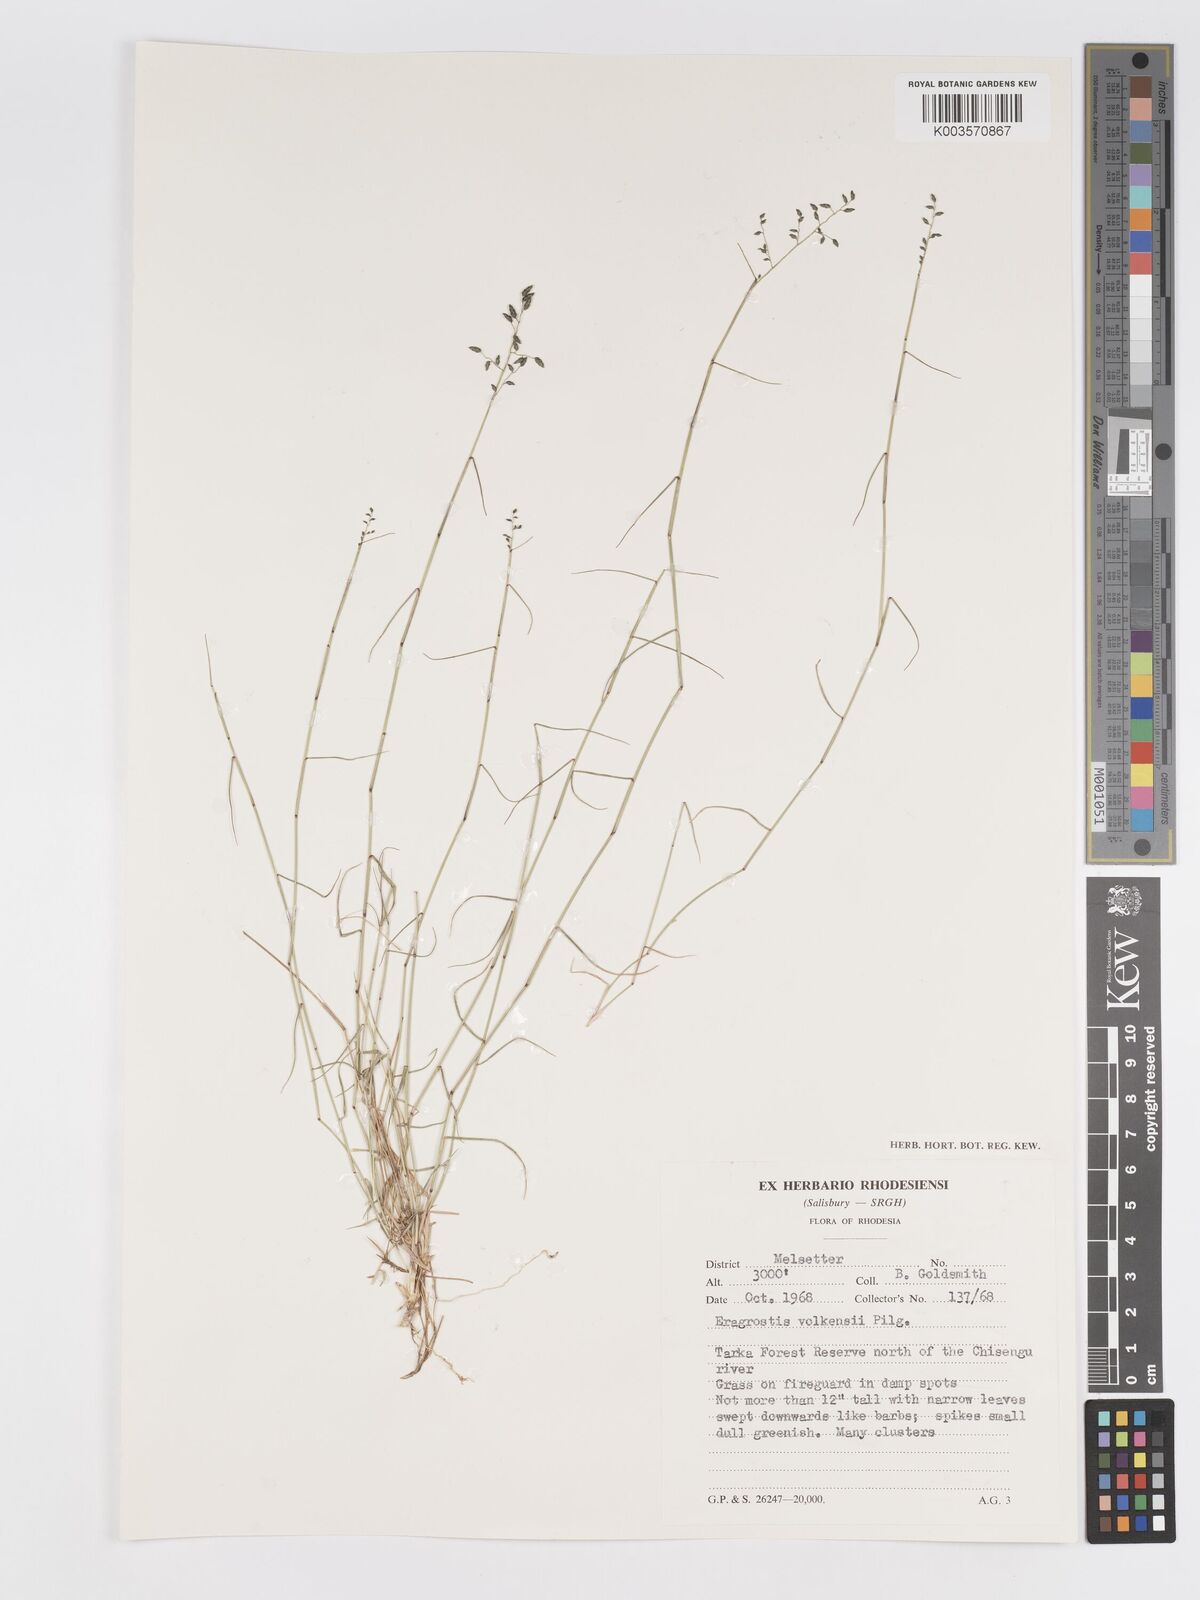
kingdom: Plantae
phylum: Tracheophyta
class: Liliopsida
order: Poales
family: Poaceae
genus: Eragrostis
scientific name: Eragrostis volkensii
